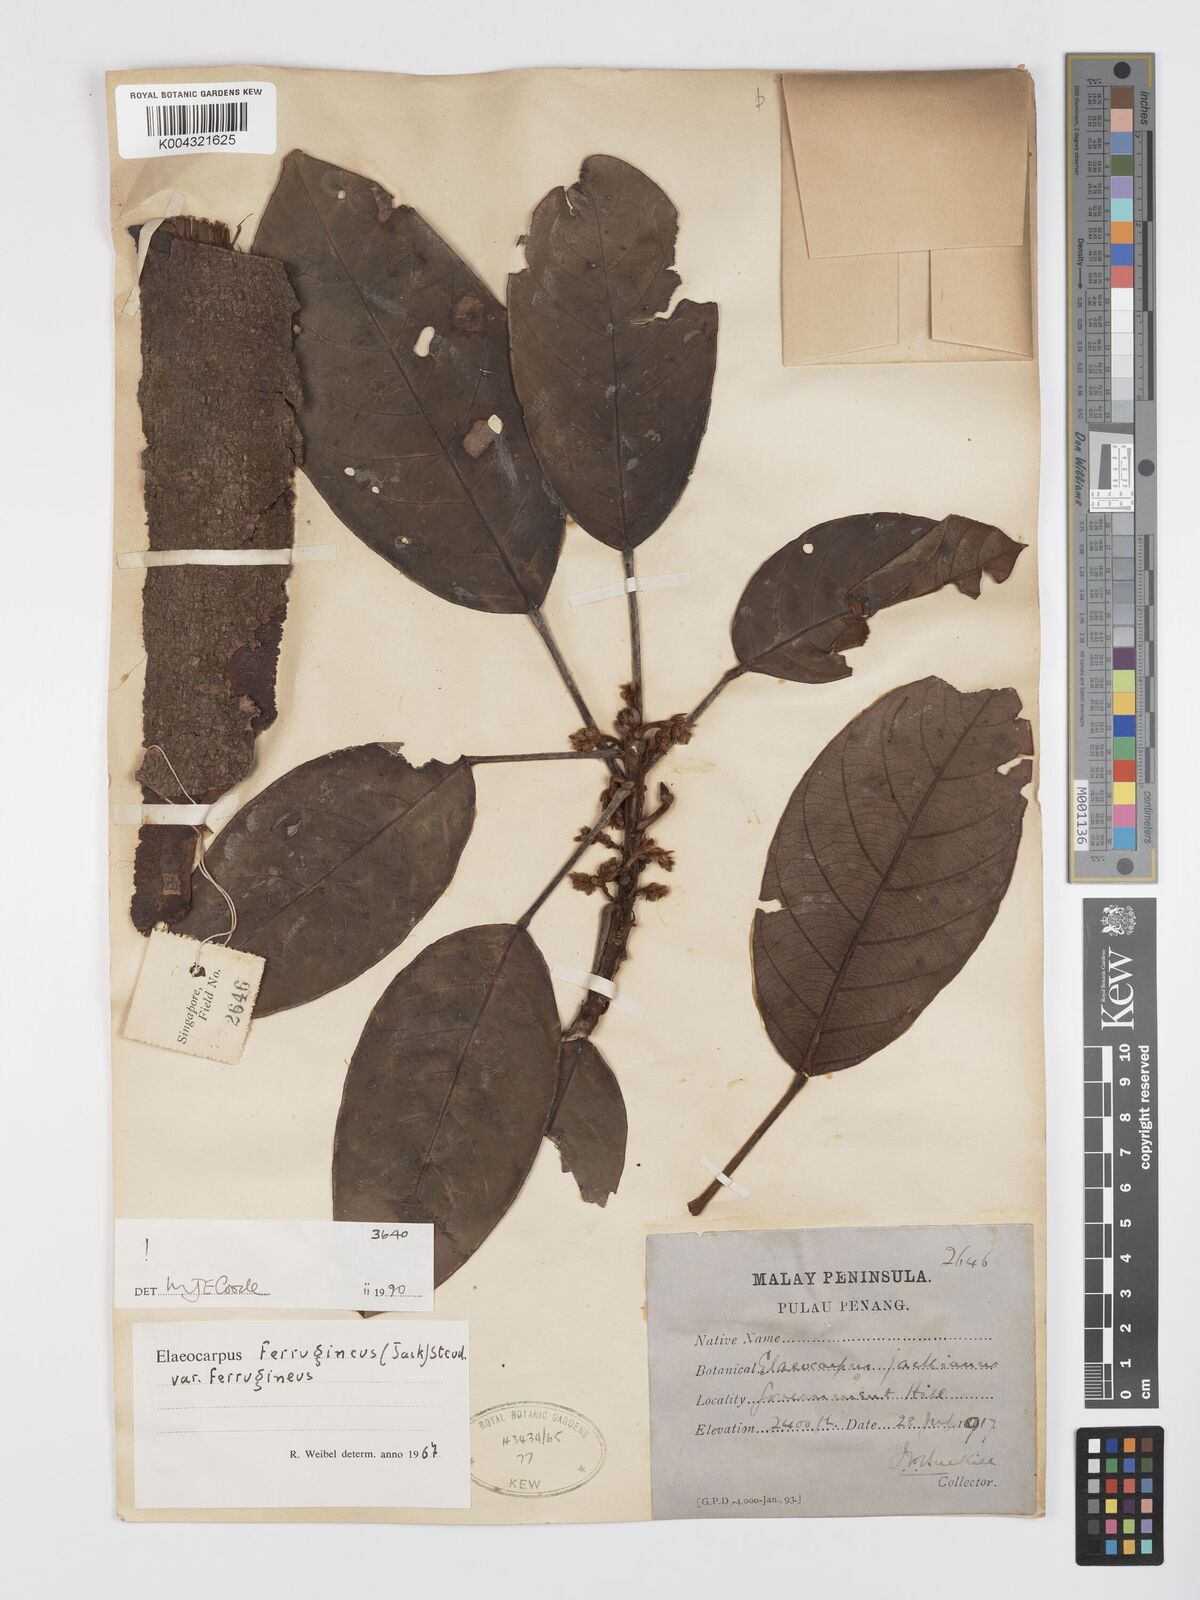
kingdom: Plantae
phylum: Tracheophyta
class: Magnoliopsida
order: Oxalidales
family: Elaeocarpaceae
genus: Elaeocarpus
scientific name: Elaeocarpus ferrugineus
